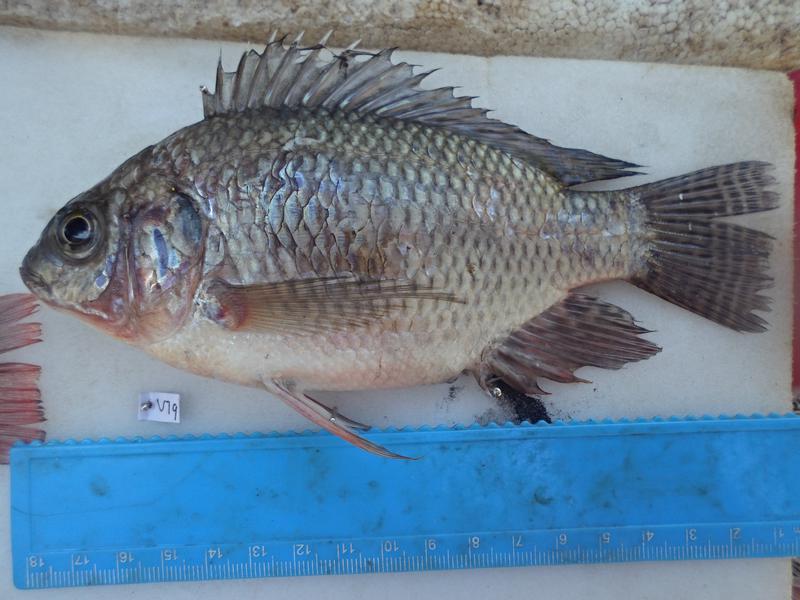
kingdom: Animalia
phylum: Chordata
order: Perciformes
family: Cichlidae
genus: Oreochromis
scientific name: Oreochromis niloticus
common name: Nile tilapia
